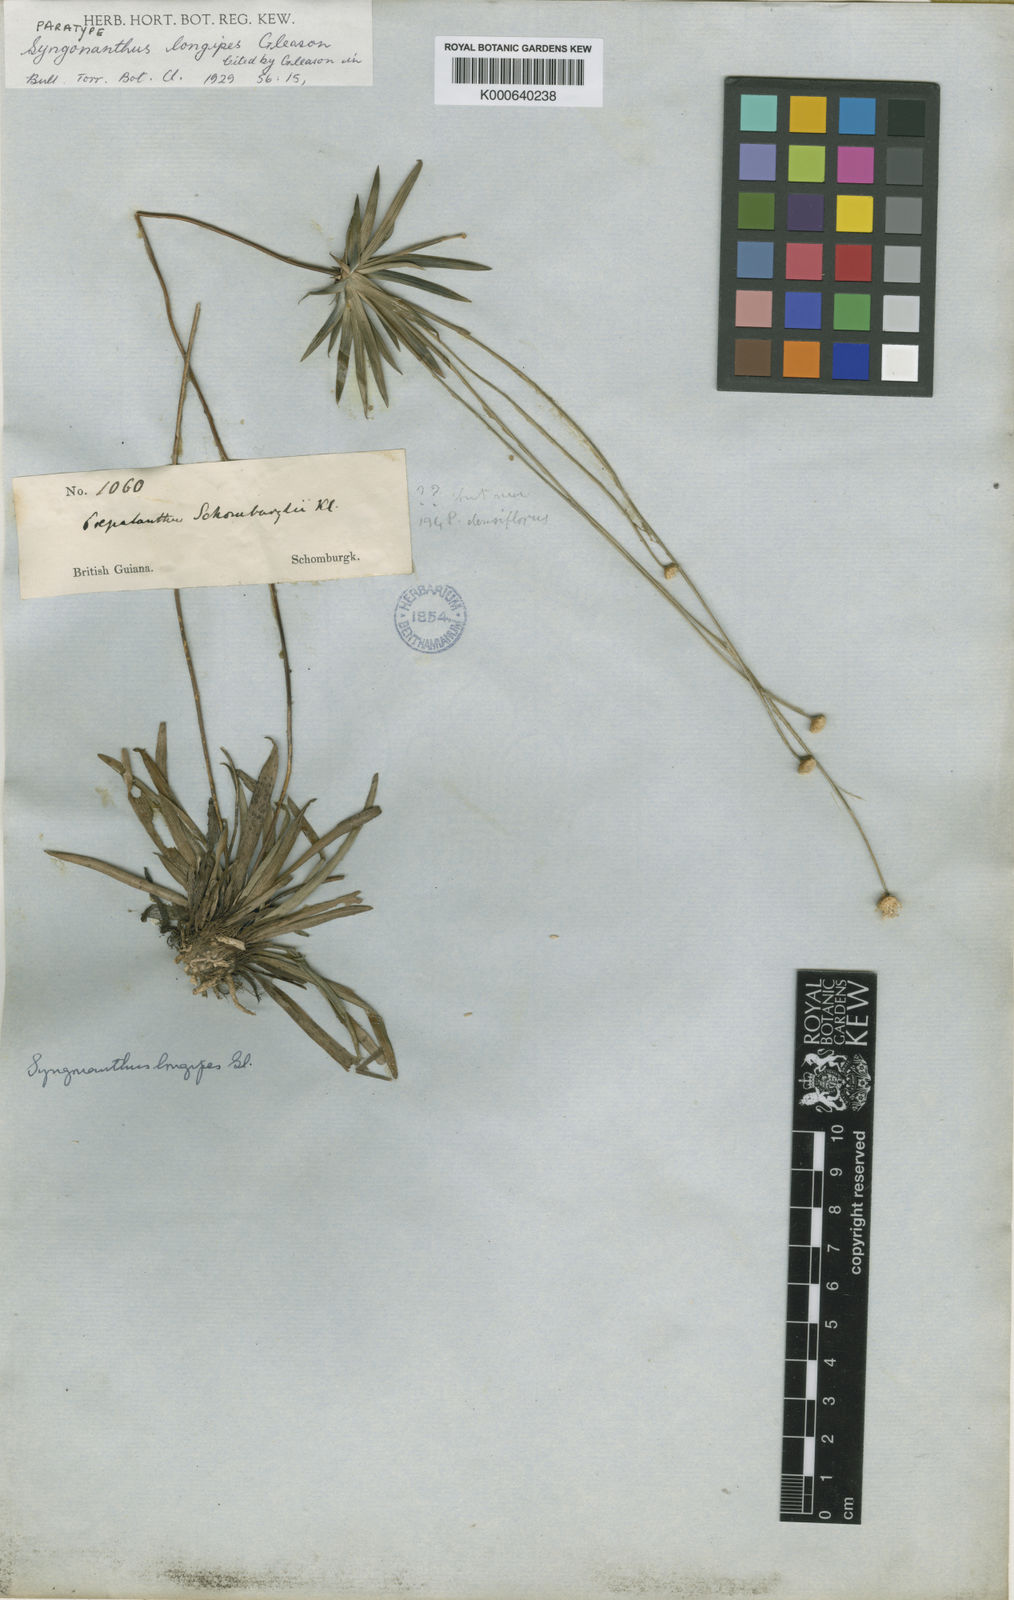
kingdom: Plantae
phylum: Tracheophyta
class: Liliopsida
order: Poales
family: Eriocaulaceae
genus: Syngonanthus
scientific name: Syngonanthus longipes
